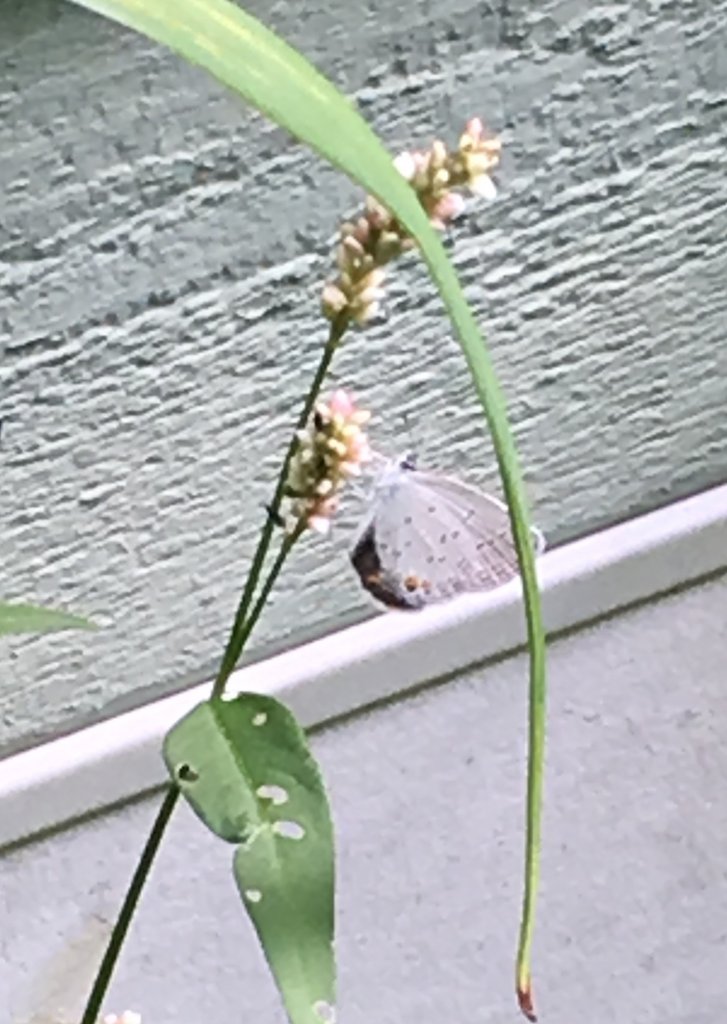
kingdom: Animalia
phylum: Arthropoda
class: Insecta
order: Lepidoptera
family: Lycaenidae
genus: Elkalyce
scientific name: Elkalyce comyntas
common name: Eastern Tailed-Blue
